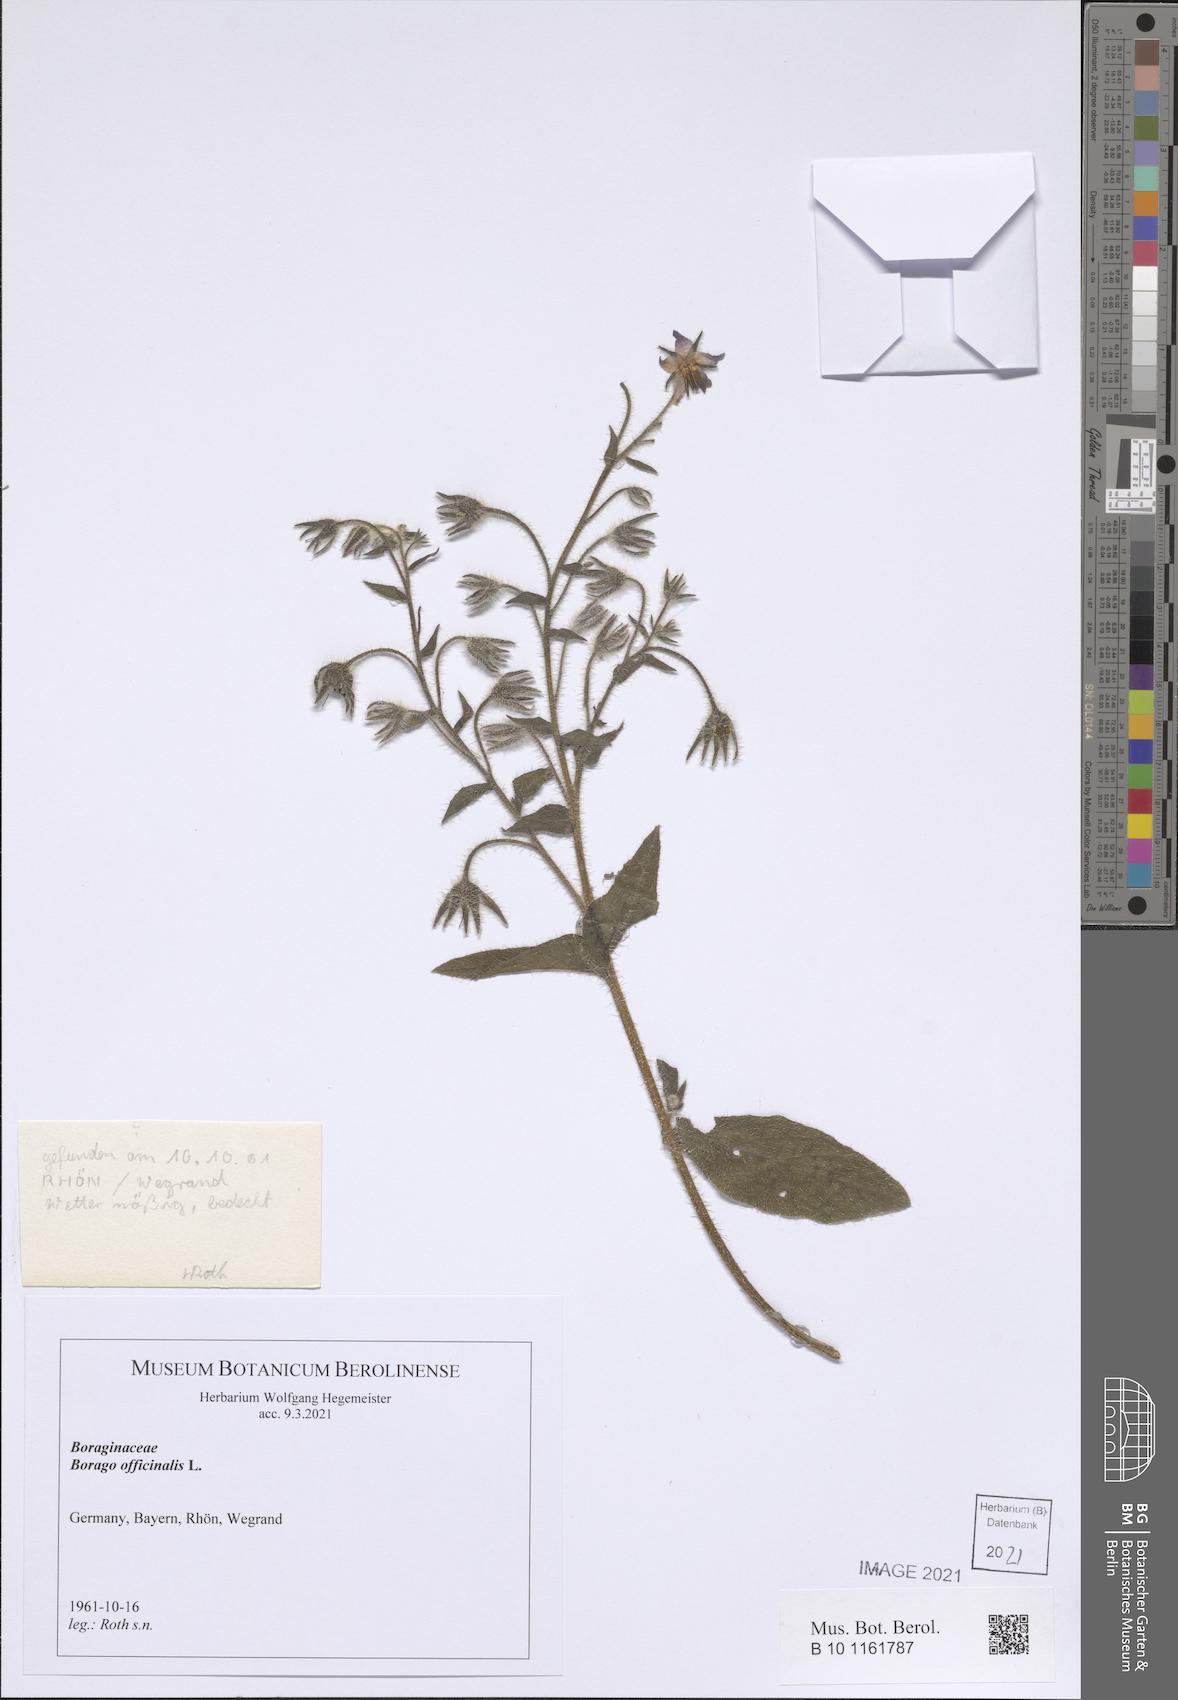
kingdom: Plantae
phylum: Tracheophyta
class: Magnoliopsida
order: Boraginales
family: Boraginaceae
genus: Borago
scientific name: Borago officinalis
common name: Borage
